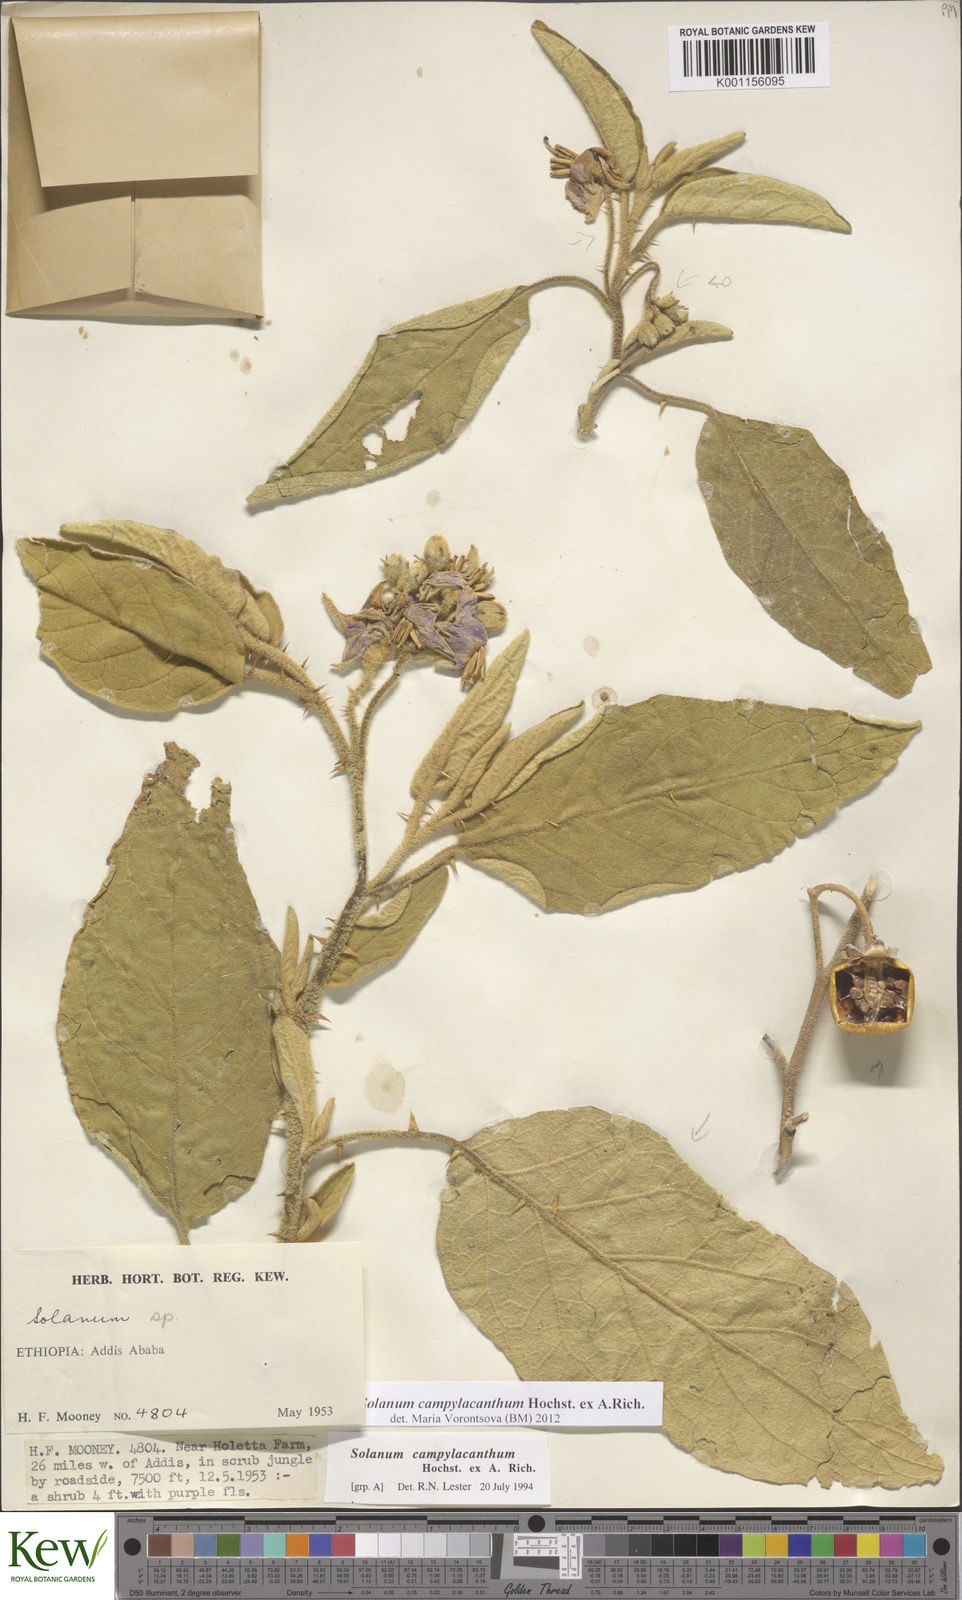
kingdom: Plantae
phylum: Tracheophyta
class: Magnoliopsida
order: Solanales
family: Solanaceae
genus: Solanum
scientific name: Solanum campylacanthum
